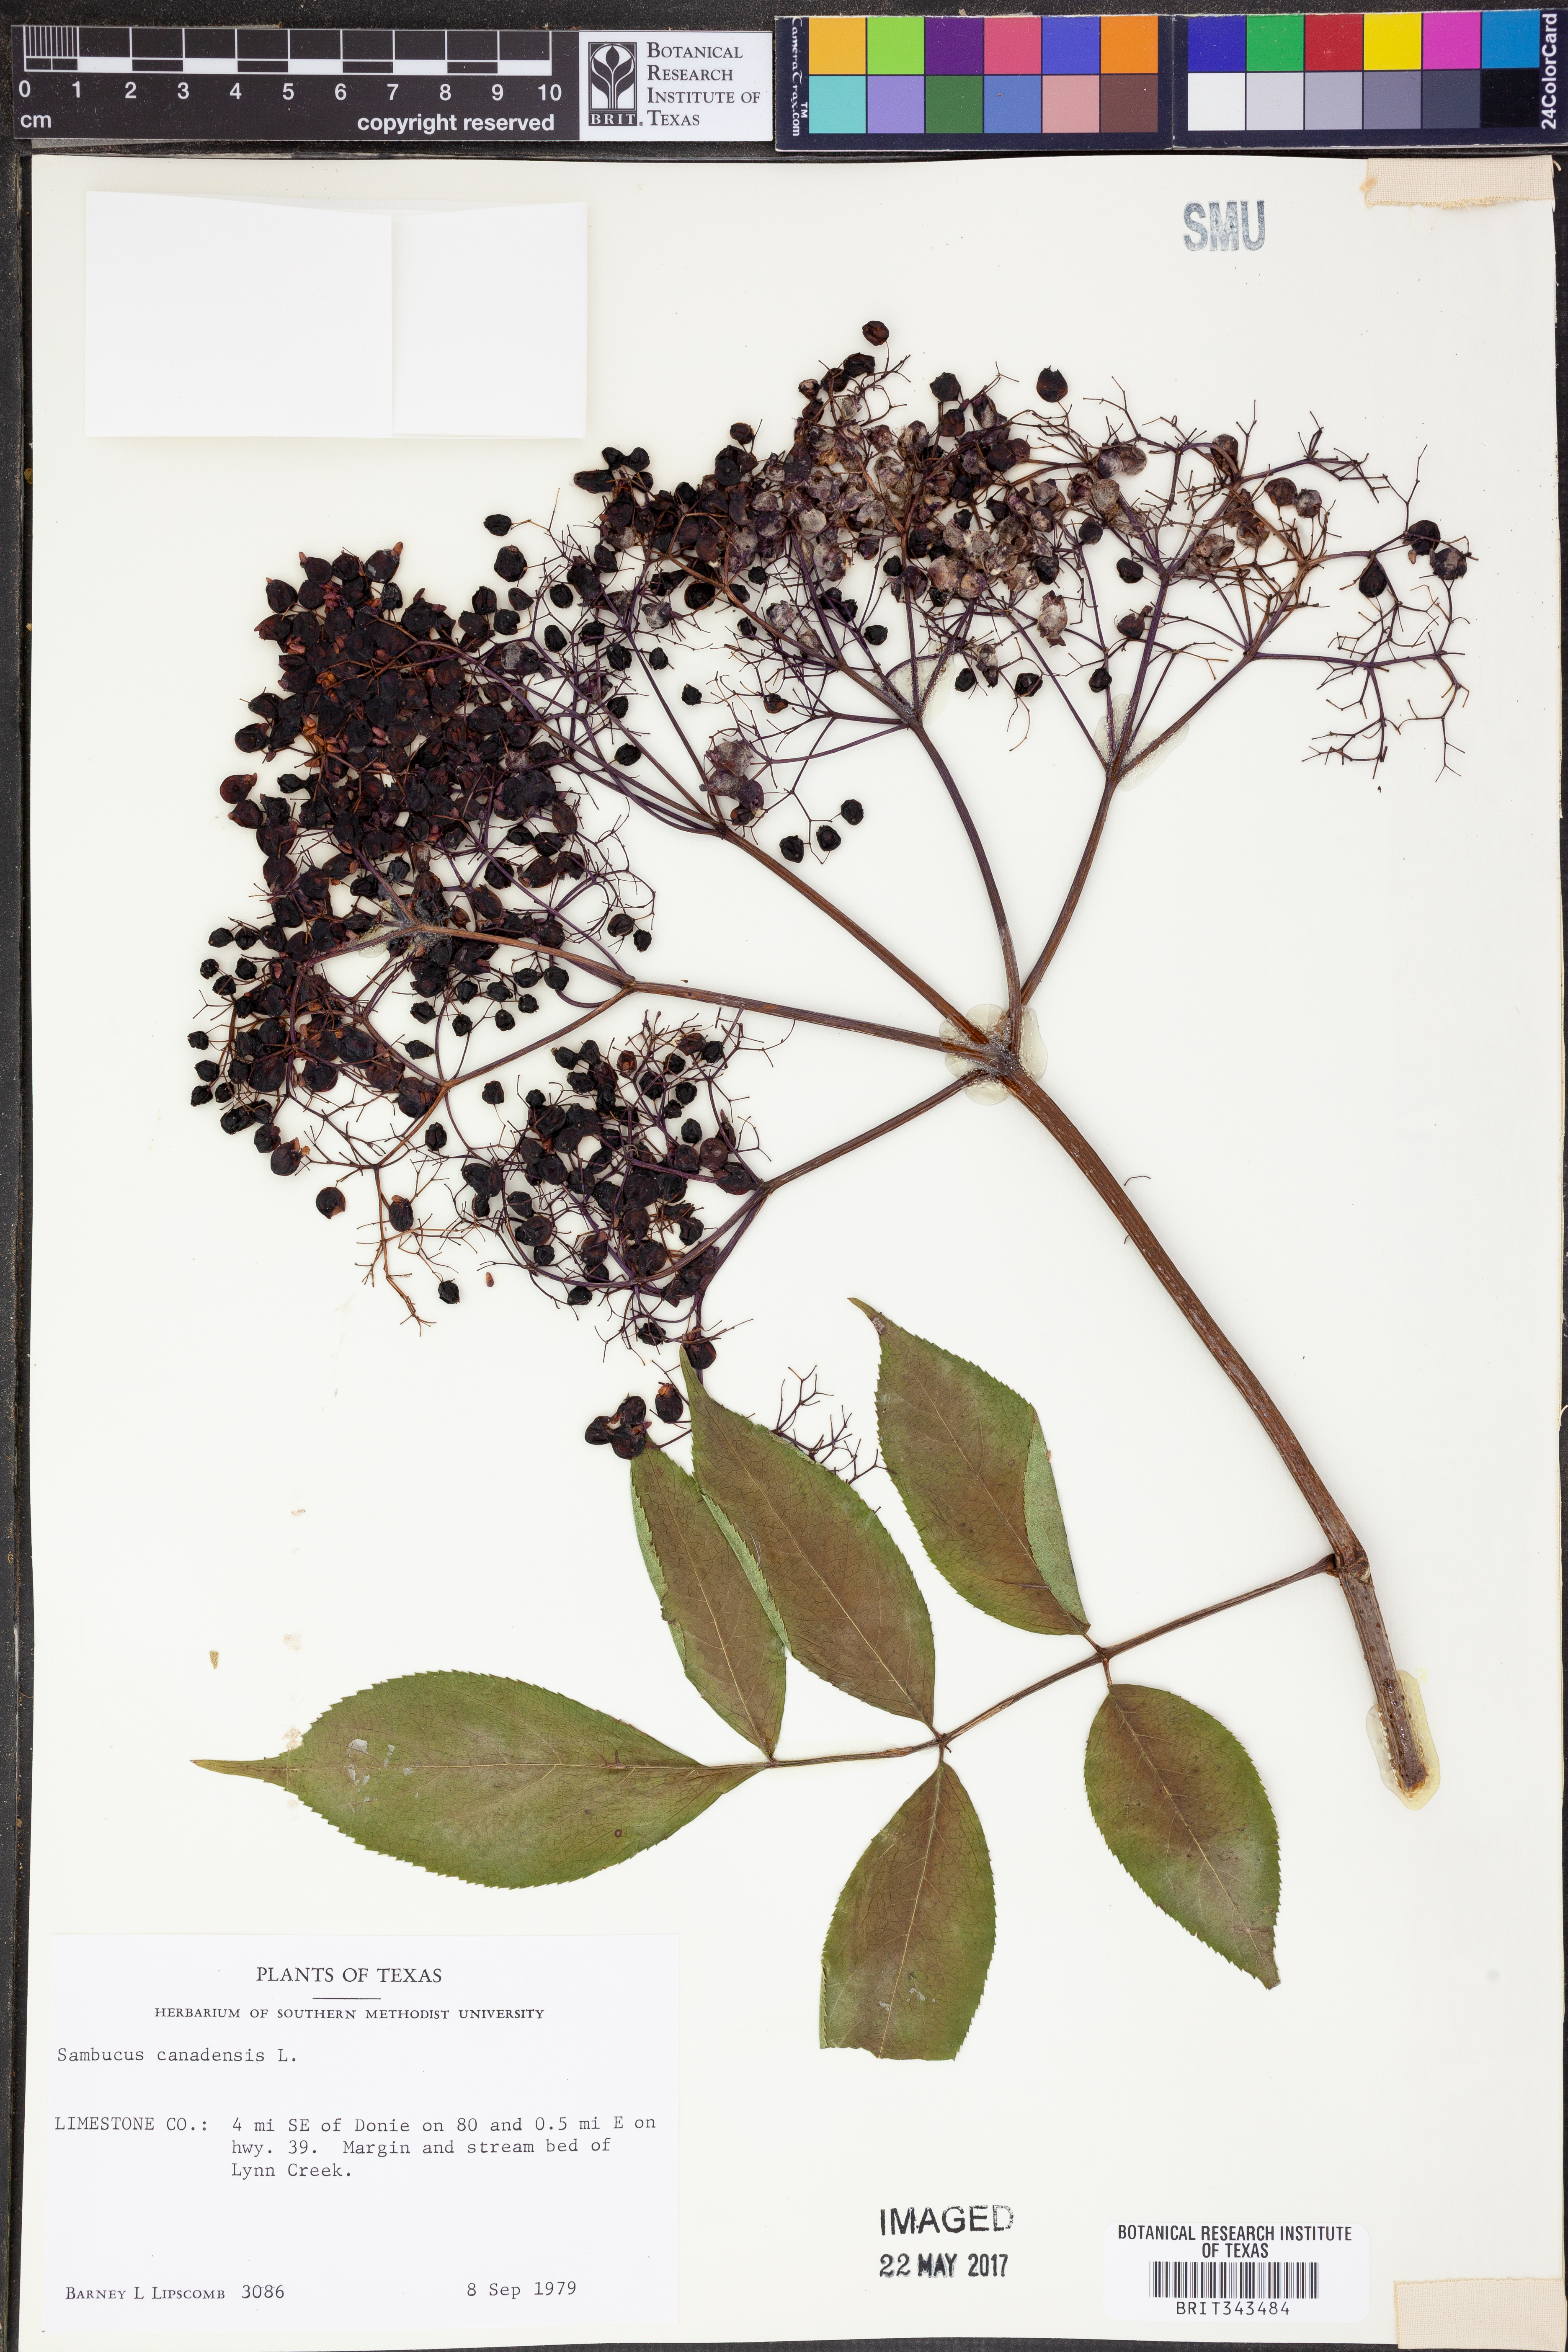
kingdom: Plantae
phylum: Tracheophyta
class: Magnoliopsida
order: Dipsacales
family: Viburnaceae
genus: Sambucus
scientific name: Sambucus canadensis
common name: American elder
